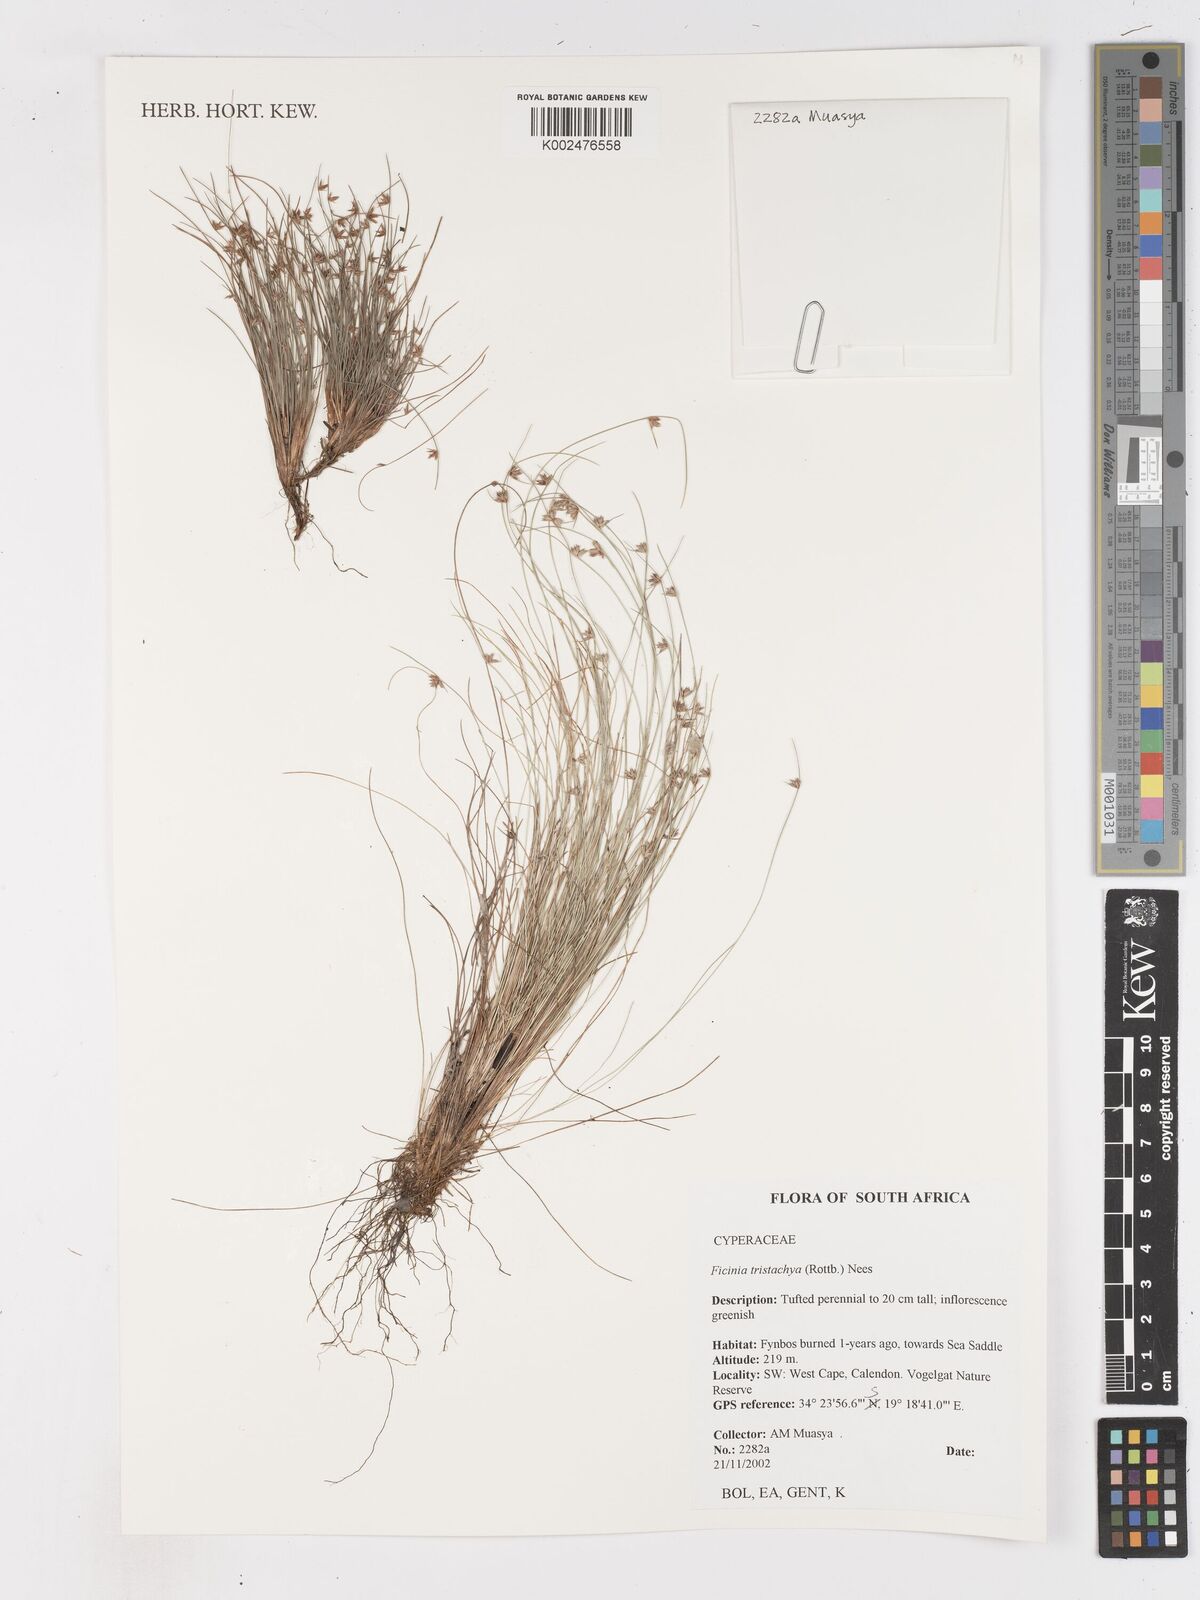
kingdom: Plantae
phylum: Tracheophyta
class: Liliopsida
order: Poales
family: Cyperaceae
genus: Ficinia
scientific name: Ficinia
